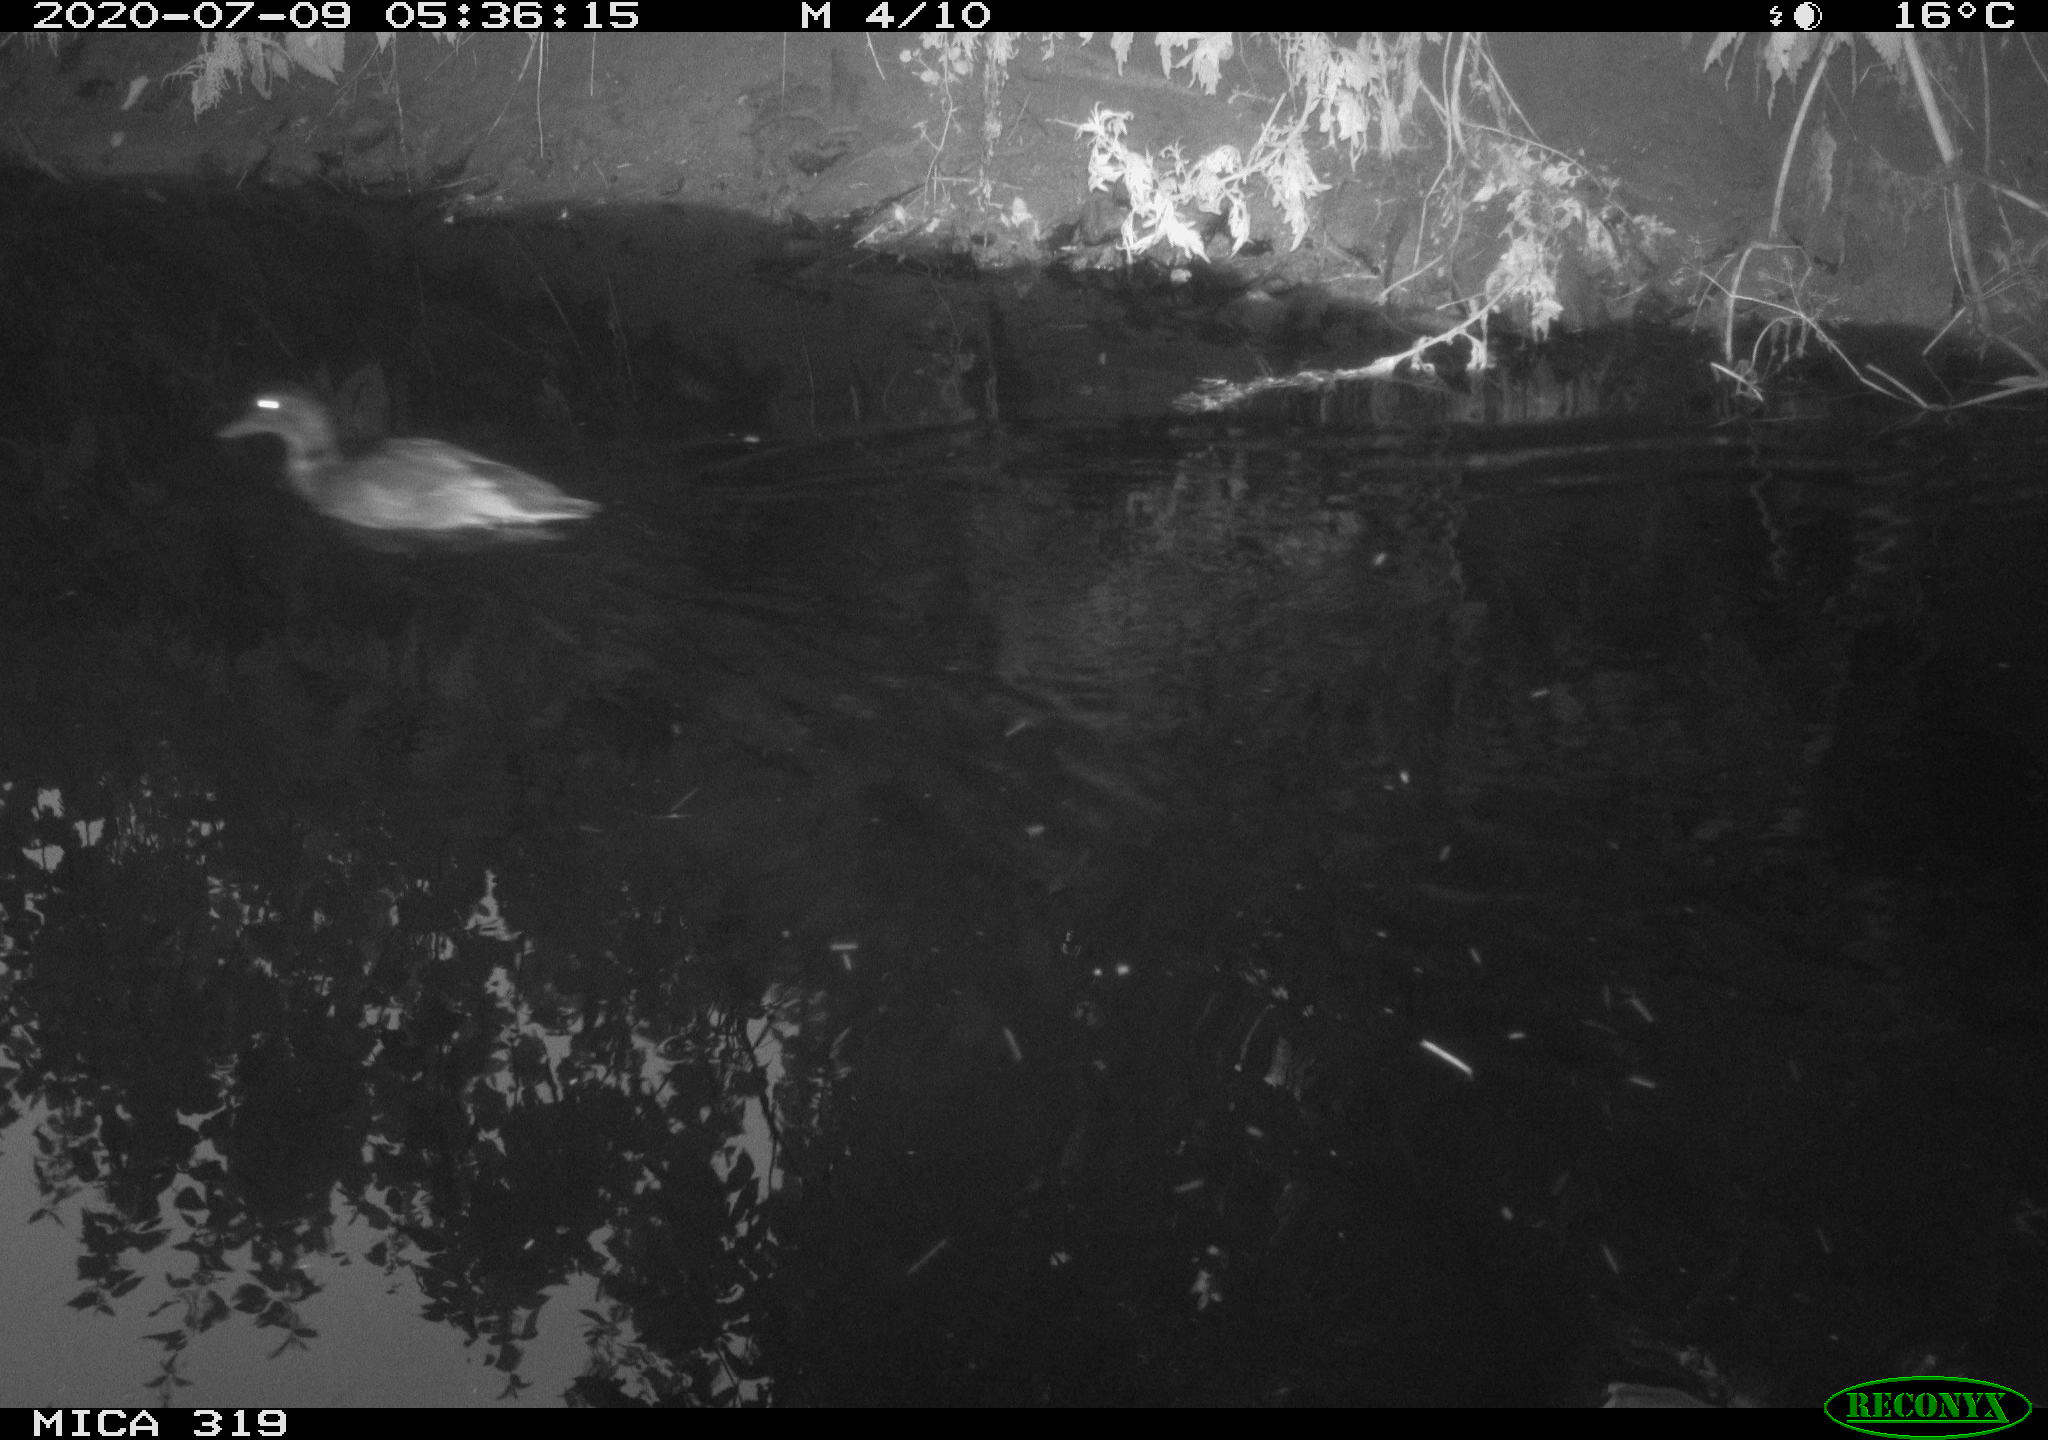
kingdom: Animalia
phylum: Chordata
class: Aves
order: Anseriformes
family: Anatidae
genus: Anas
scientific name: Anas platyrhynchos
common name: Mallard
